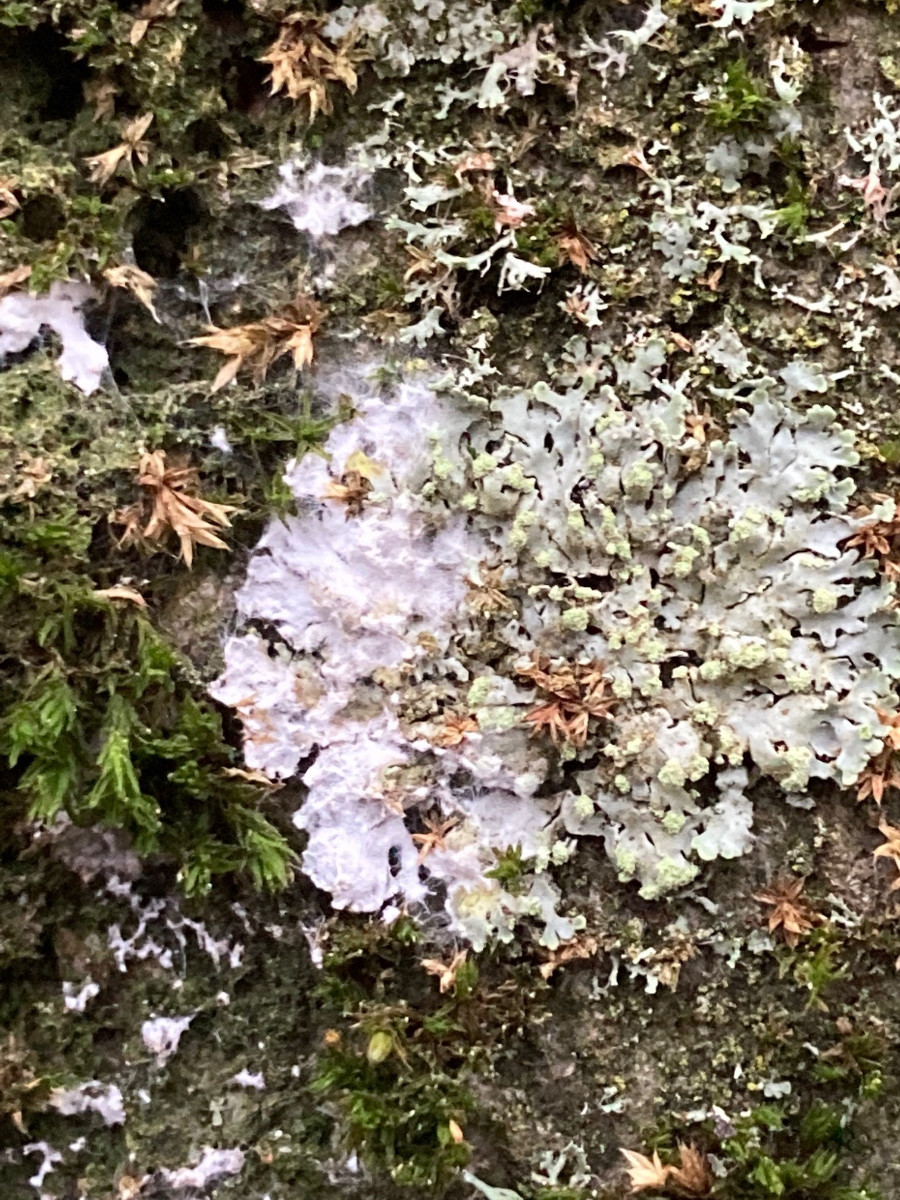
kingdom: Fungi
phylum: Basidiomycota
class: Agaricomycetes
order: Atheliales
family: Atheliaceae
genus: Athelia
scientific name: Athelia arachnoidea
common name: randet barkhinde
